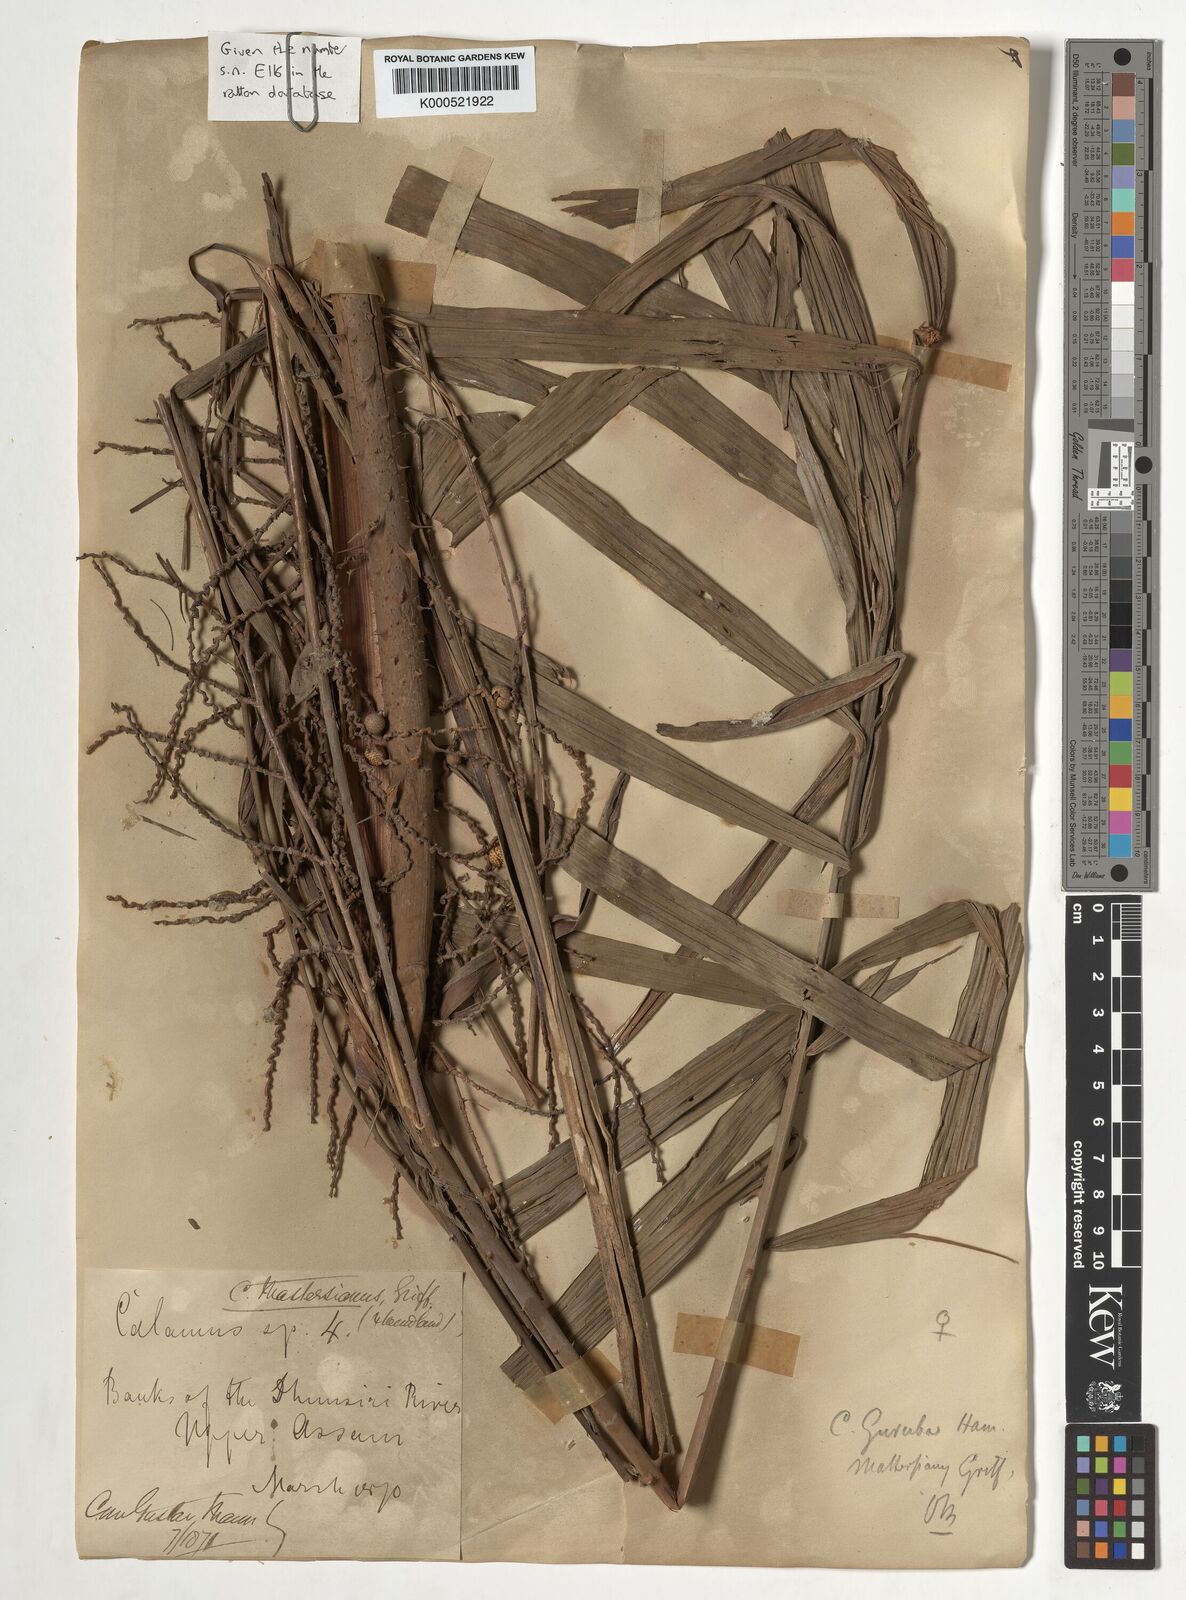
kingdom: Plantae
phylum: Tracheophyta
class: Liliopsida
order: Arecales
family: Arecaceae
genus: Calamus
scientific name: Calamus
